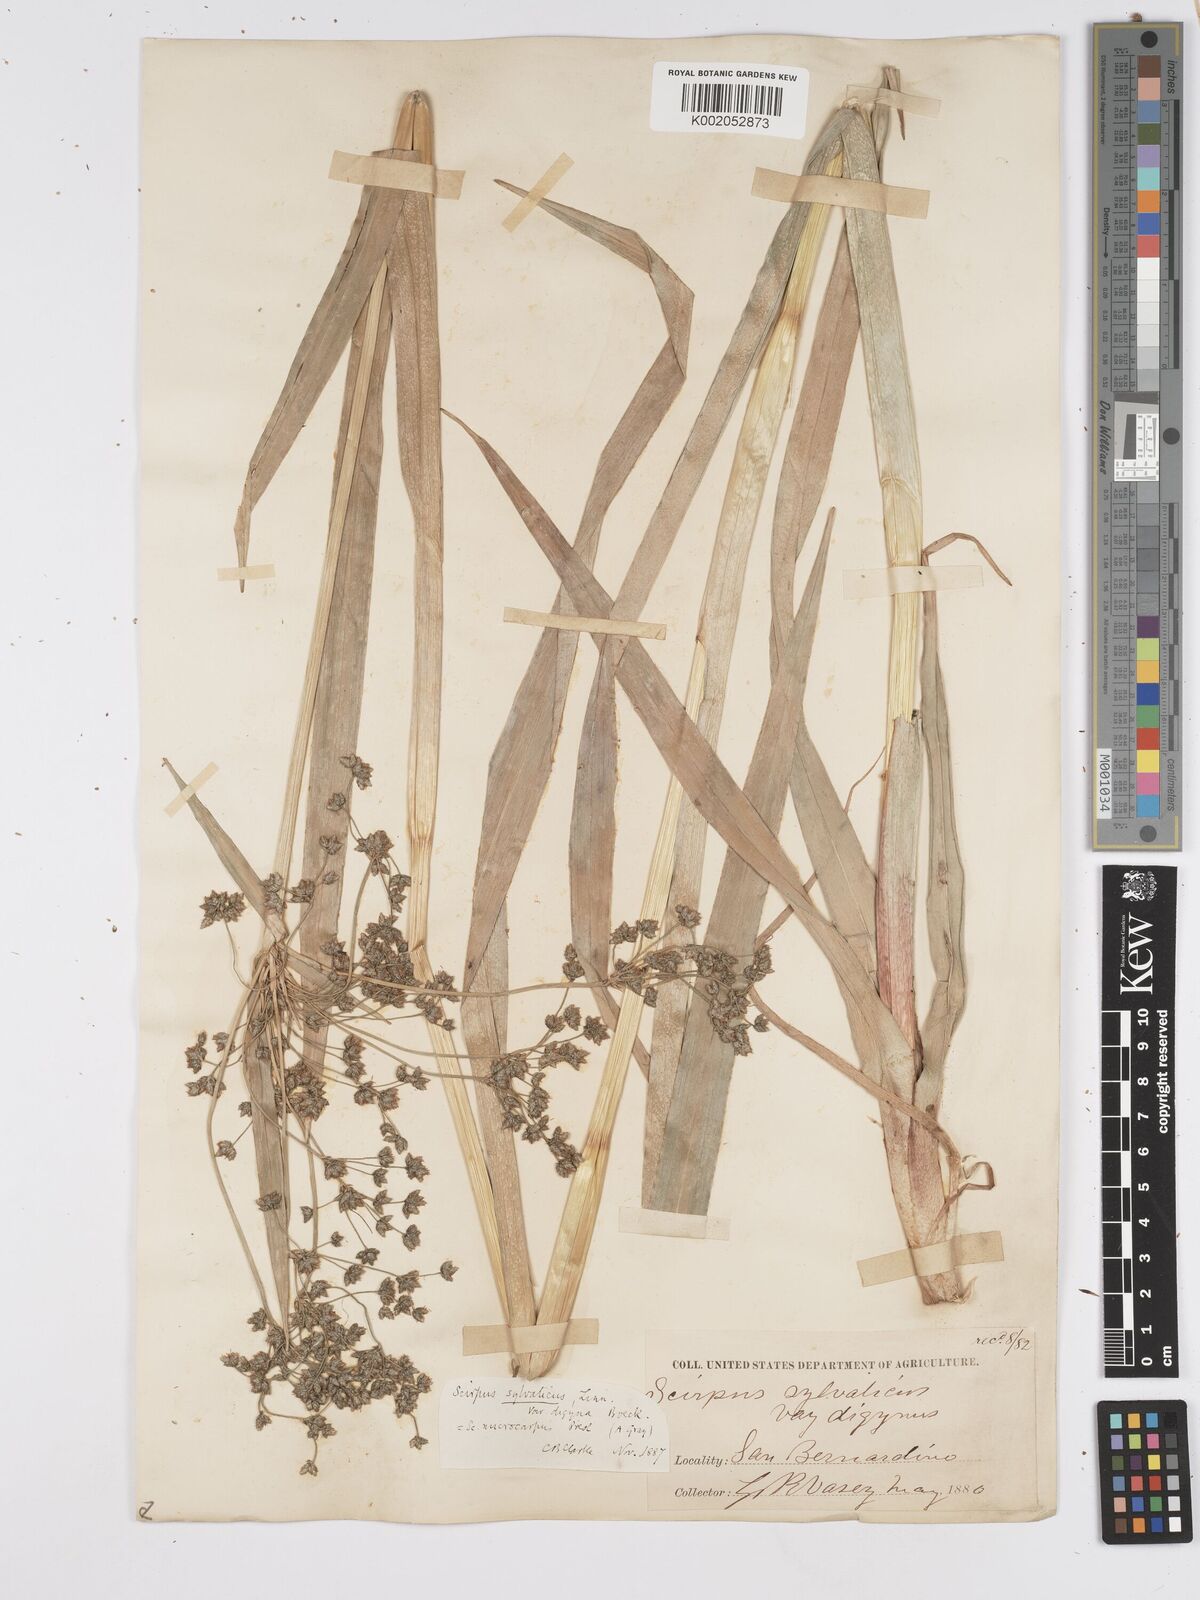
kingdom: Plantae
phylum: Tracheophyta
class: Liliopsida
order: Poales
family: Cyperaceae
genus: Scirpus
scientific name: Scirpus sylvaticus
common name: Wood club-rush
